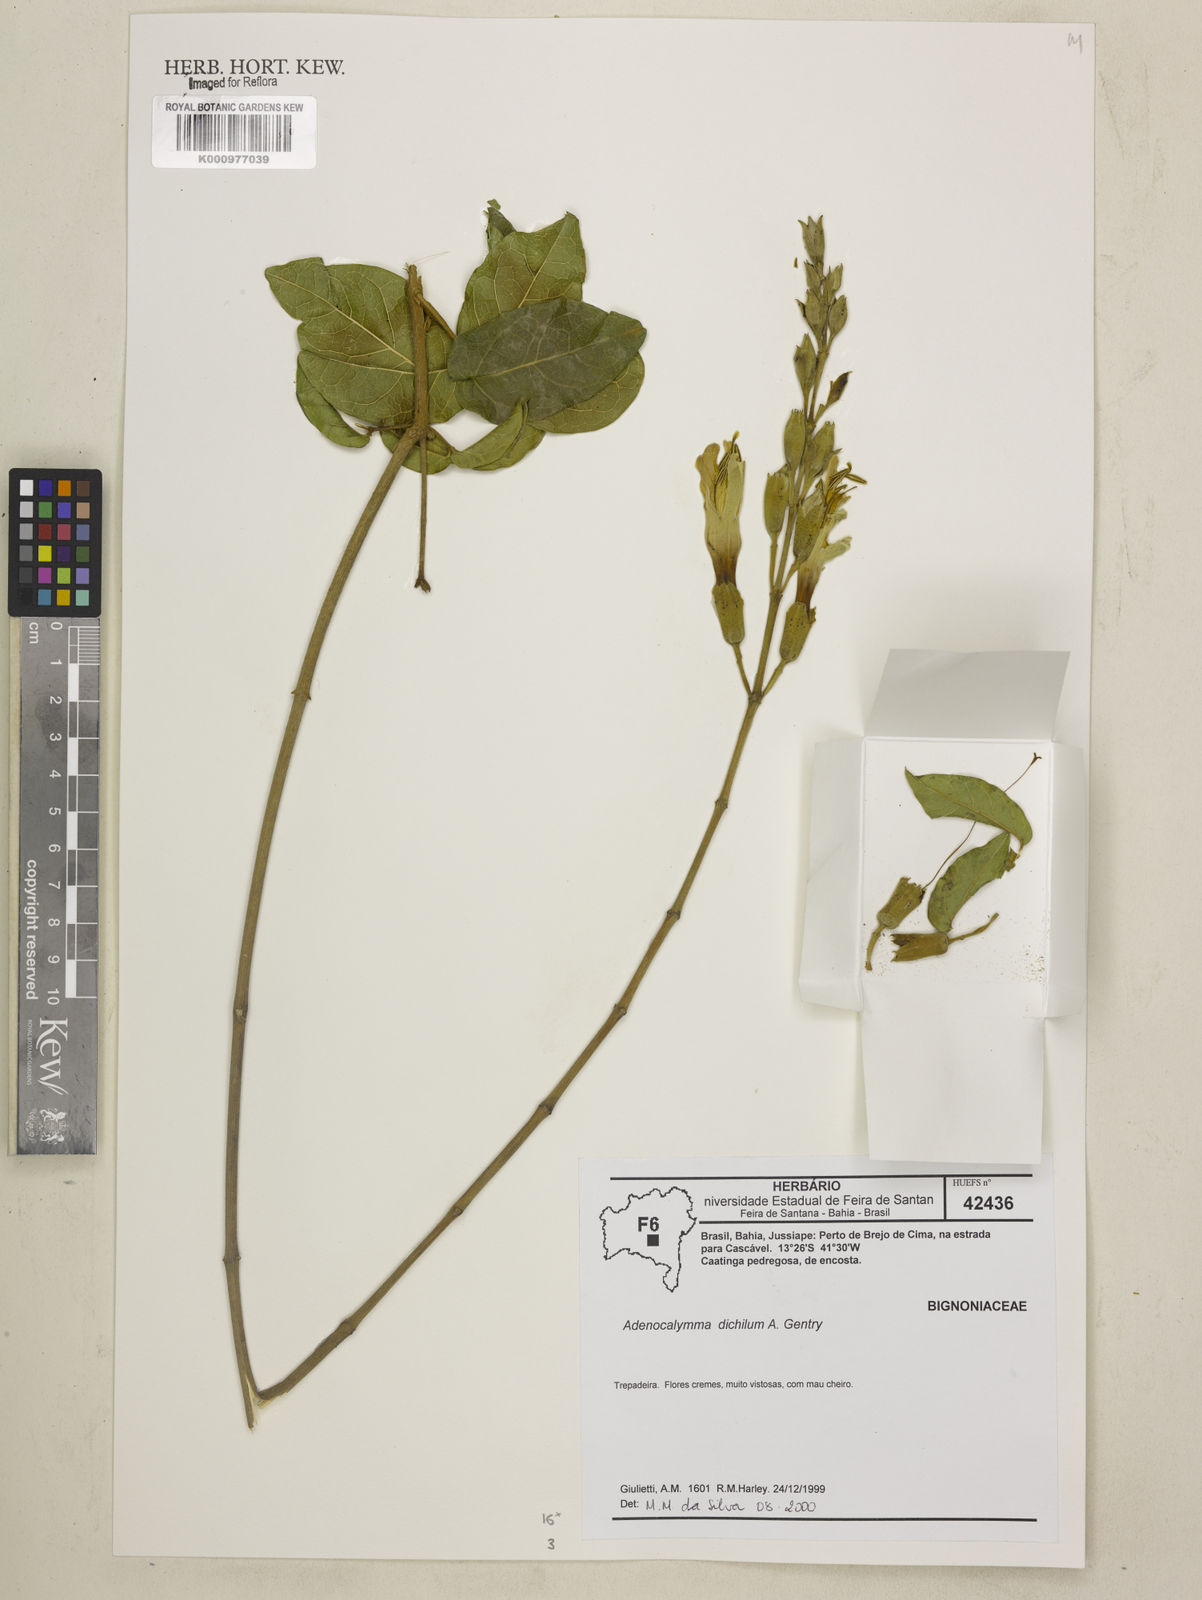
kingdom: Plantae
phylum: Tracheophyta
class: Magnoliopsida
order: Lamiales
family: Bignoniaceae
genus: Adenocalymma
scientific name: Adenocalymma dichilum
